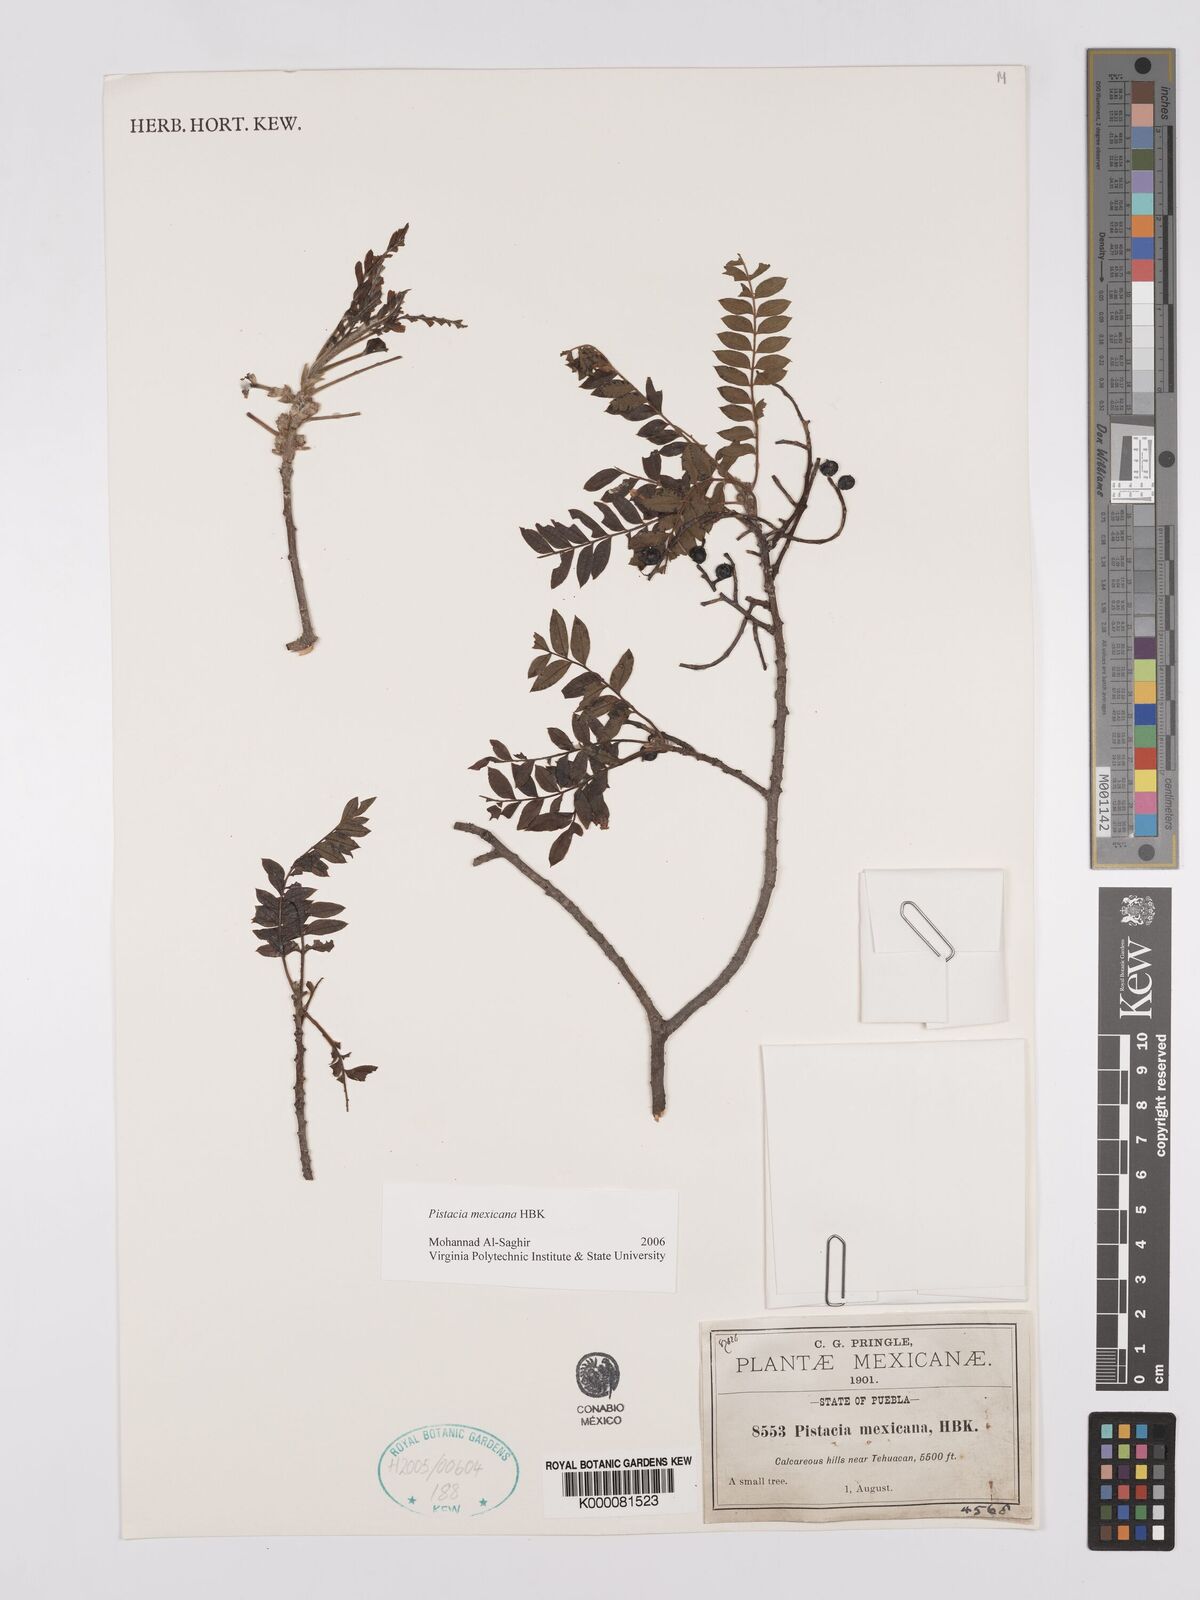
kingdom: Plantae
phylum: Tracheophyta
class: Magnoliopsida
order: Sapindales
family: Anacardiaceae
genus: Pistacia
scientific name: Pistacia mexicana
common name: Mexican pistachio
